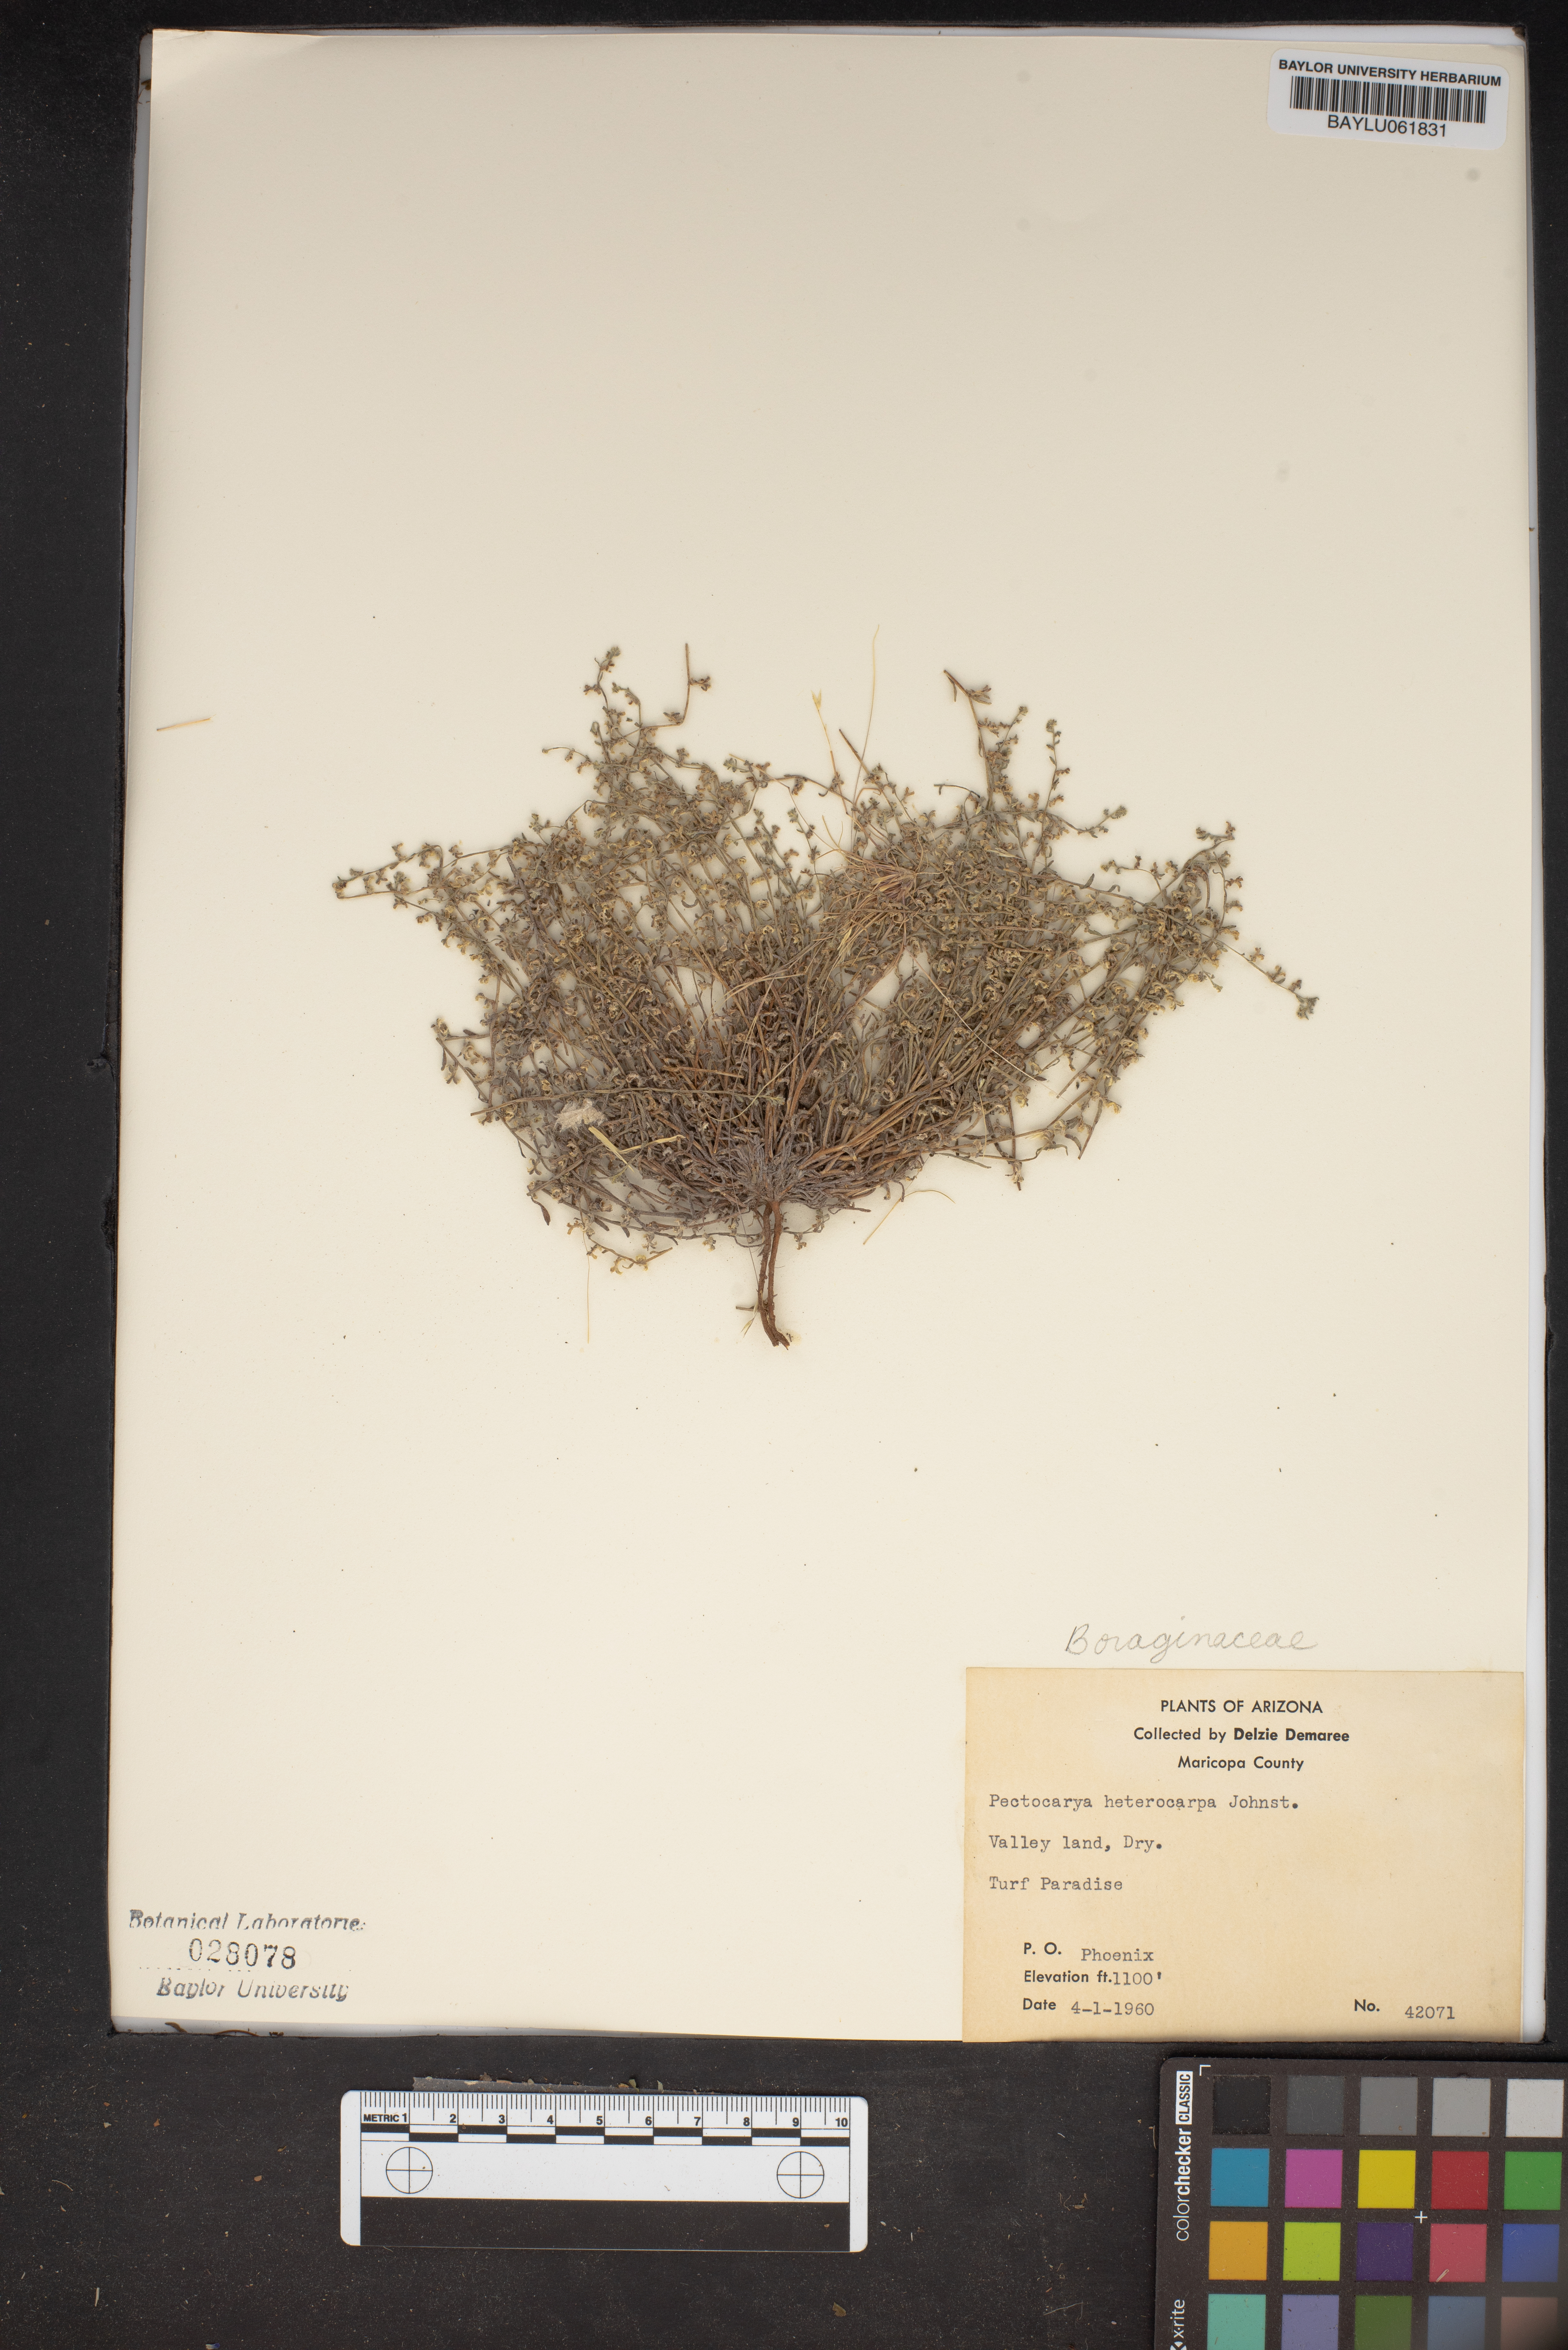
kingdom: Plantae
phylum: Tracheophyta
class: Magnoliopsida
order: Boraginales
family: Boraginaceae
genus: Pectocarya
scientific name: Pectocarya heterocarpa
